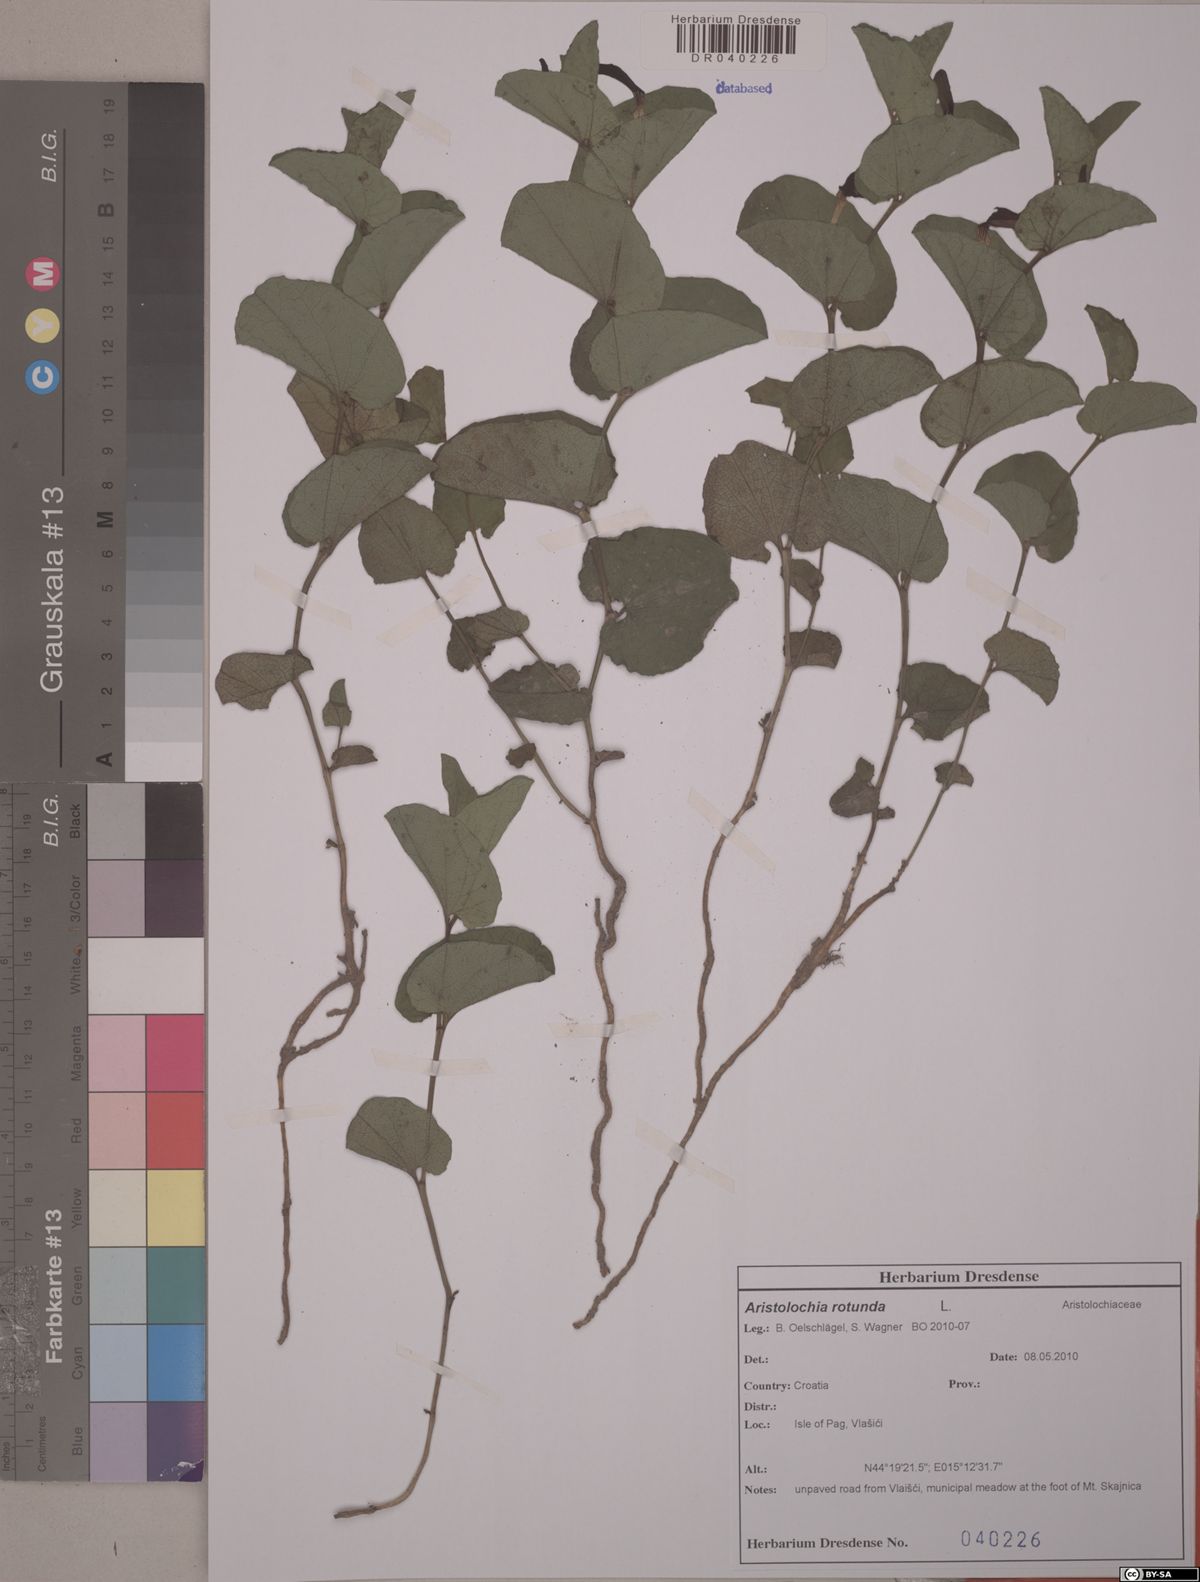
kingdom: Plantae
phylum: Tracheophyta
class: Magnoliopsida
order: Piperales
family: Aristolochiaceae
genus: Aristolochia
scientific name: Aristolochia rotunda
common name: Smearwort
